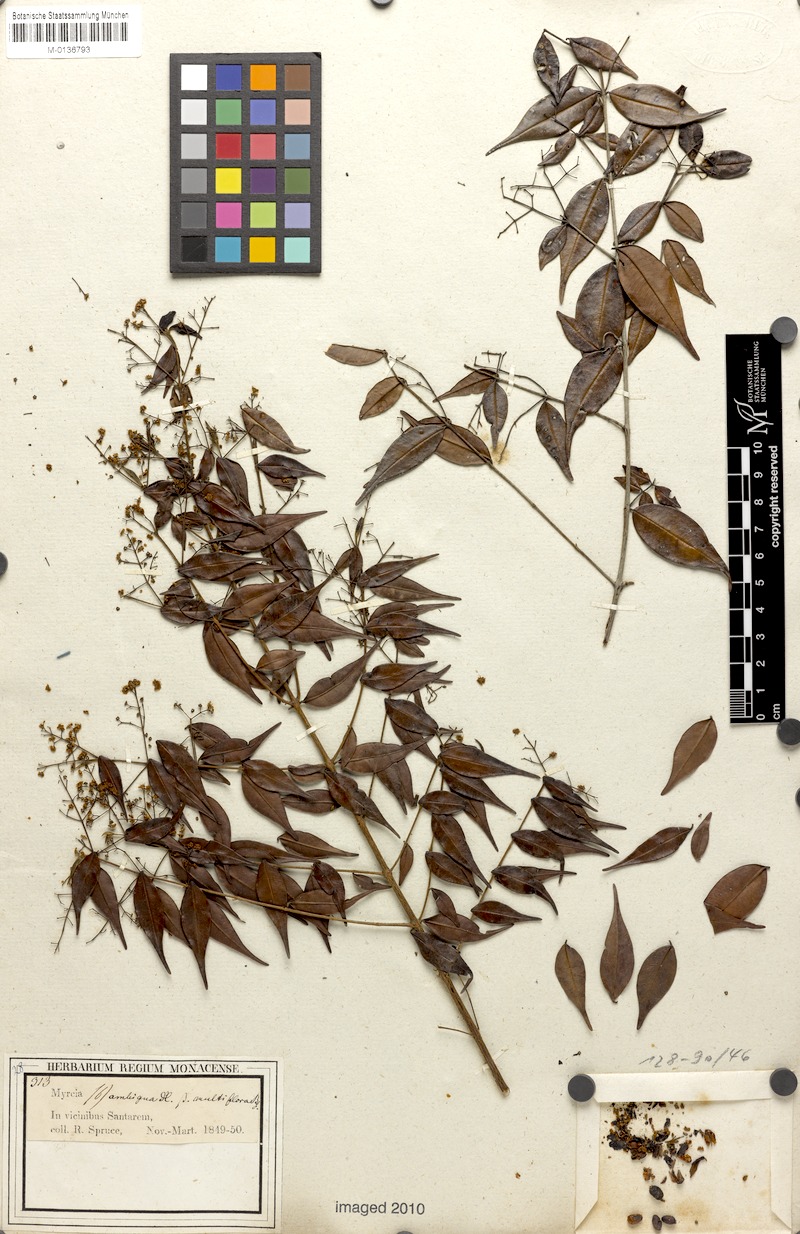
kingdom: Plantae
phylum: Tracheophyta
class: Magnoliopsida
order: Myrtales
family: Myrtaceae
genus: Myrcia
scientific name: Myrcia sylvatica
